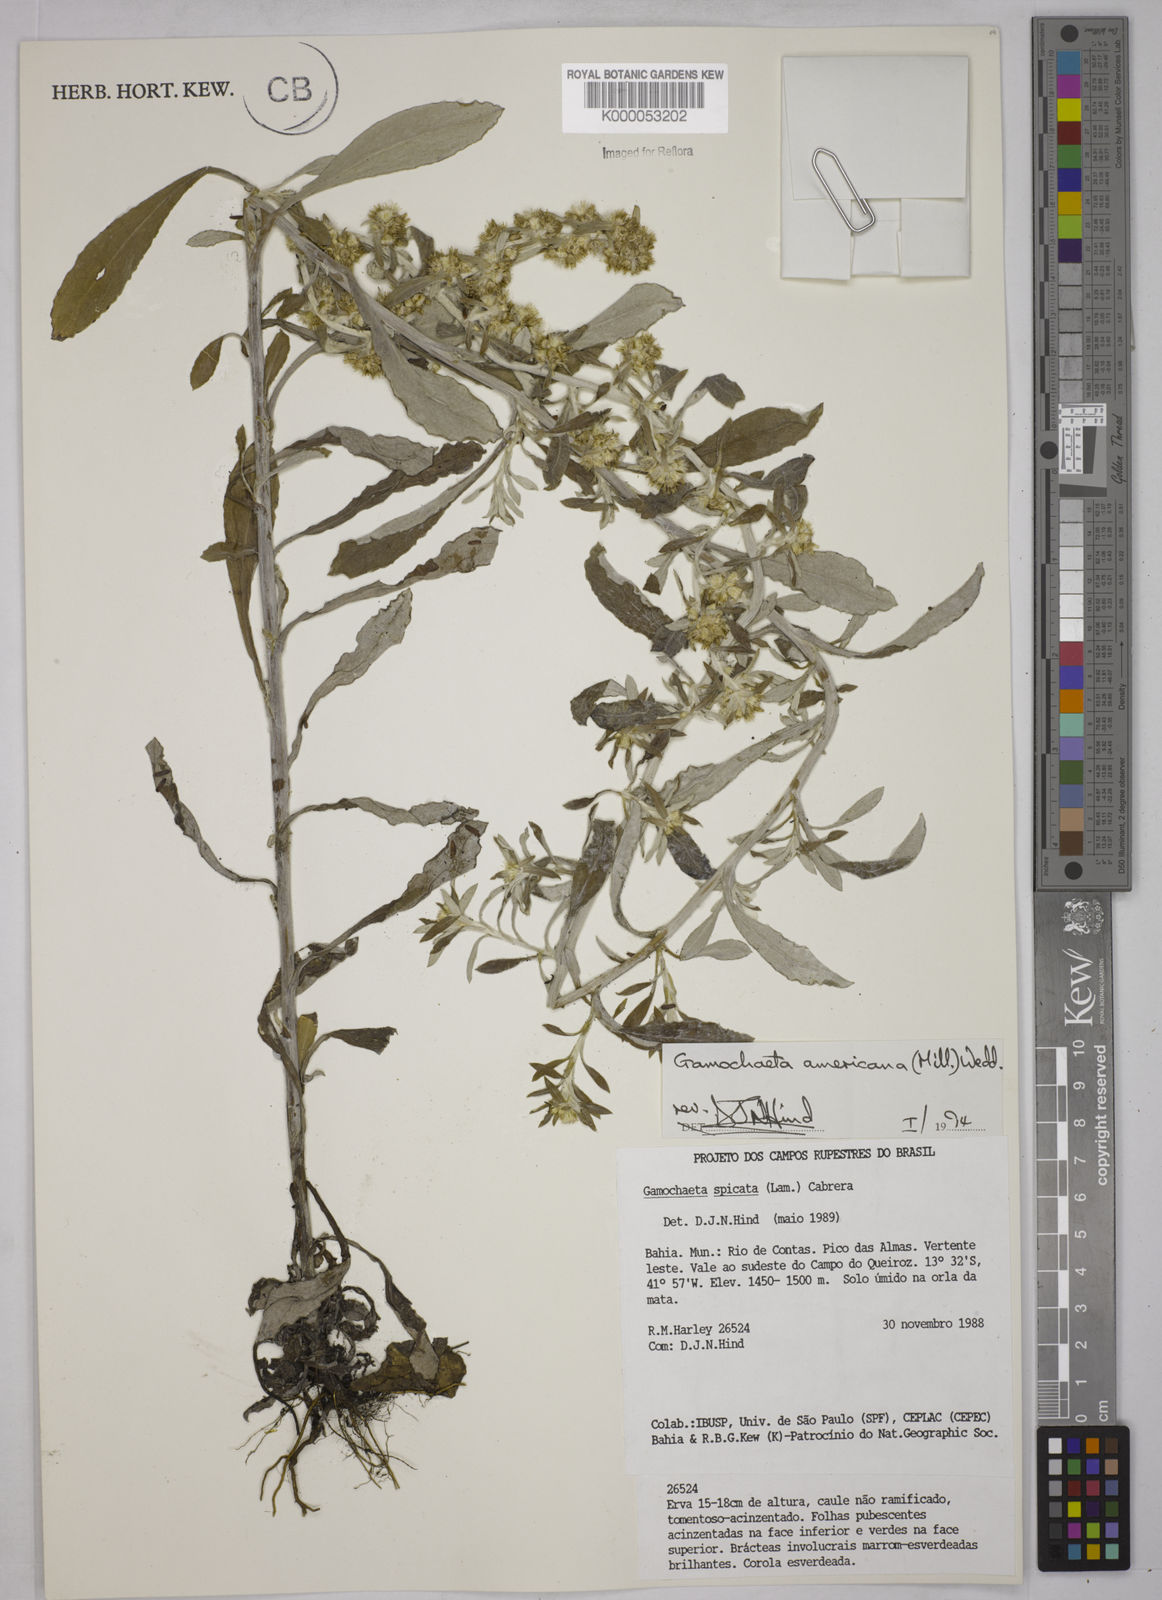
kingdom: Plantae
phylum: Tracheophyta
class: Magnoliopsida
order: Asterales
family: Asteraceae
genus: Gamochaeta
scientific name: Gamochaeta americana
